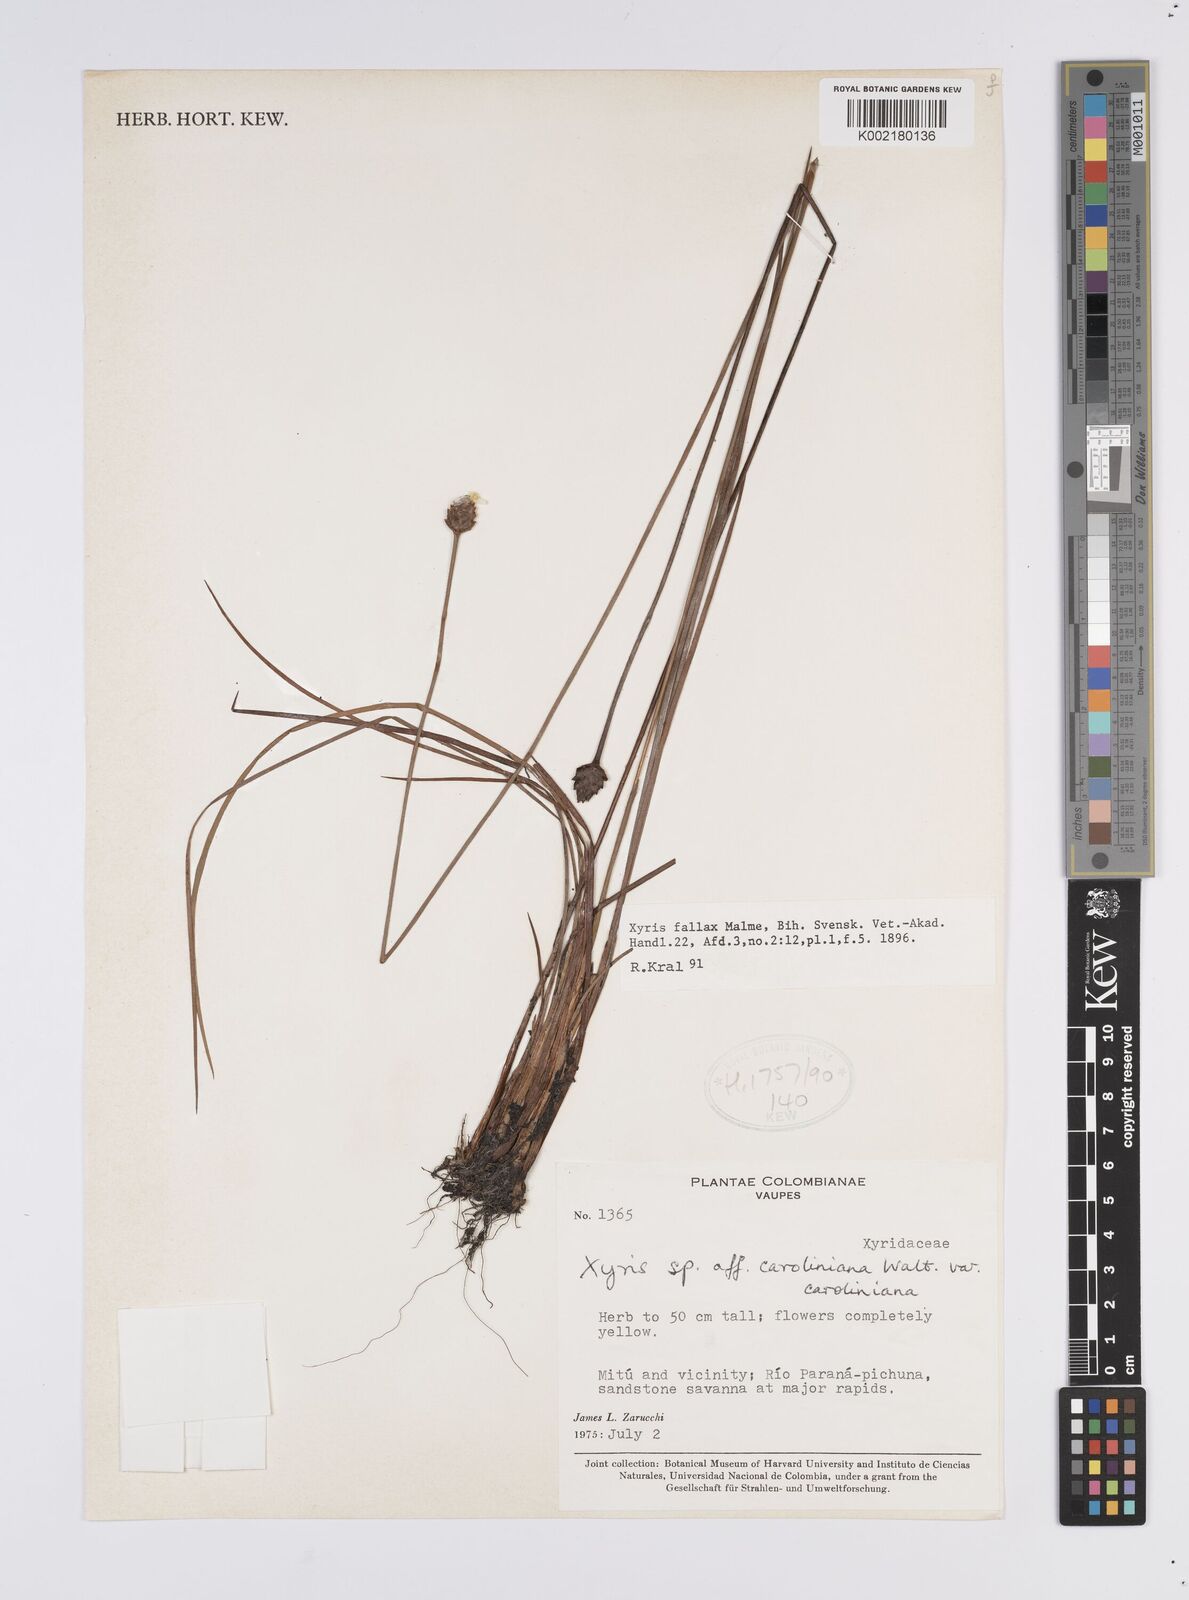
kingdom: Plantae
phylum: Tracheophyta
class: Liliopsida
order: Poales
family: Xyridaceae
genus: Xyris
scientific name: Xyris fallax
